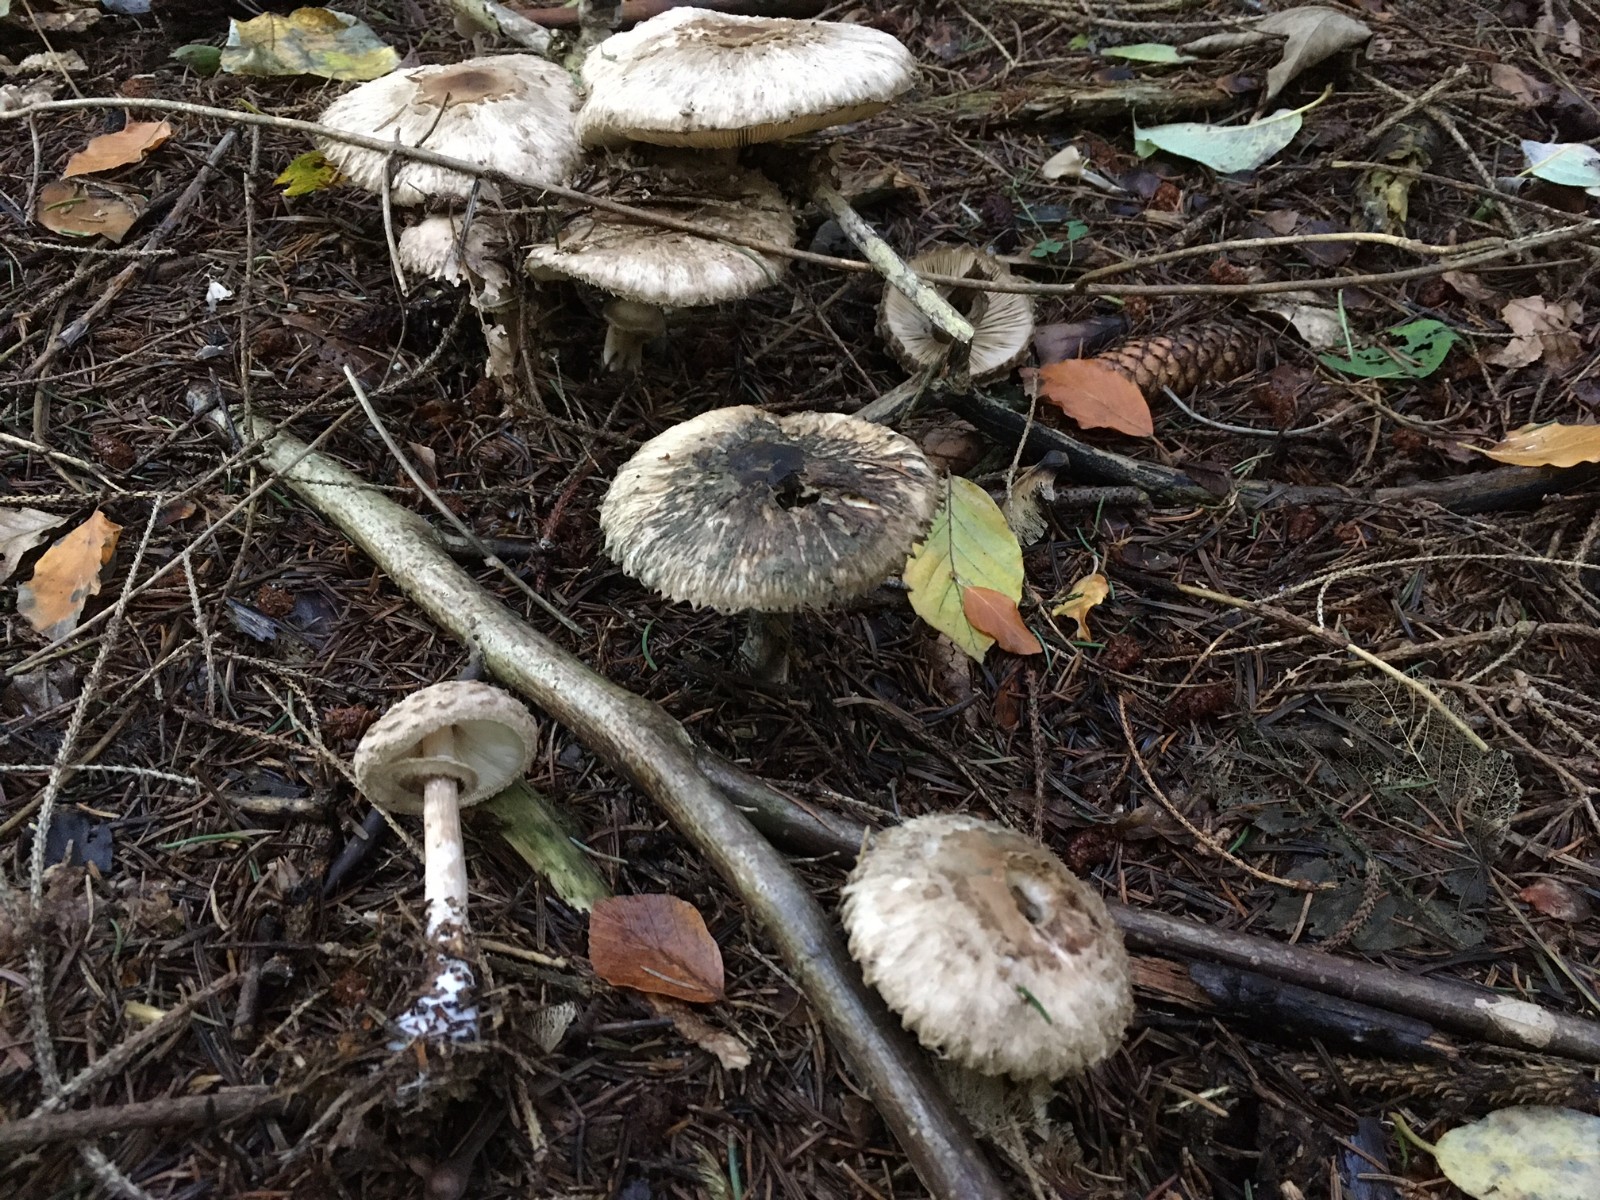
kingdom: Fungi
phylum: Basidiomycota
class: Agaricomycetes
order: Agaricales
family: Agaricaceae
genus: Chlorophyllum
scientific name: Chlorophyllum olivieri
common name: almindelig rabarberhat
